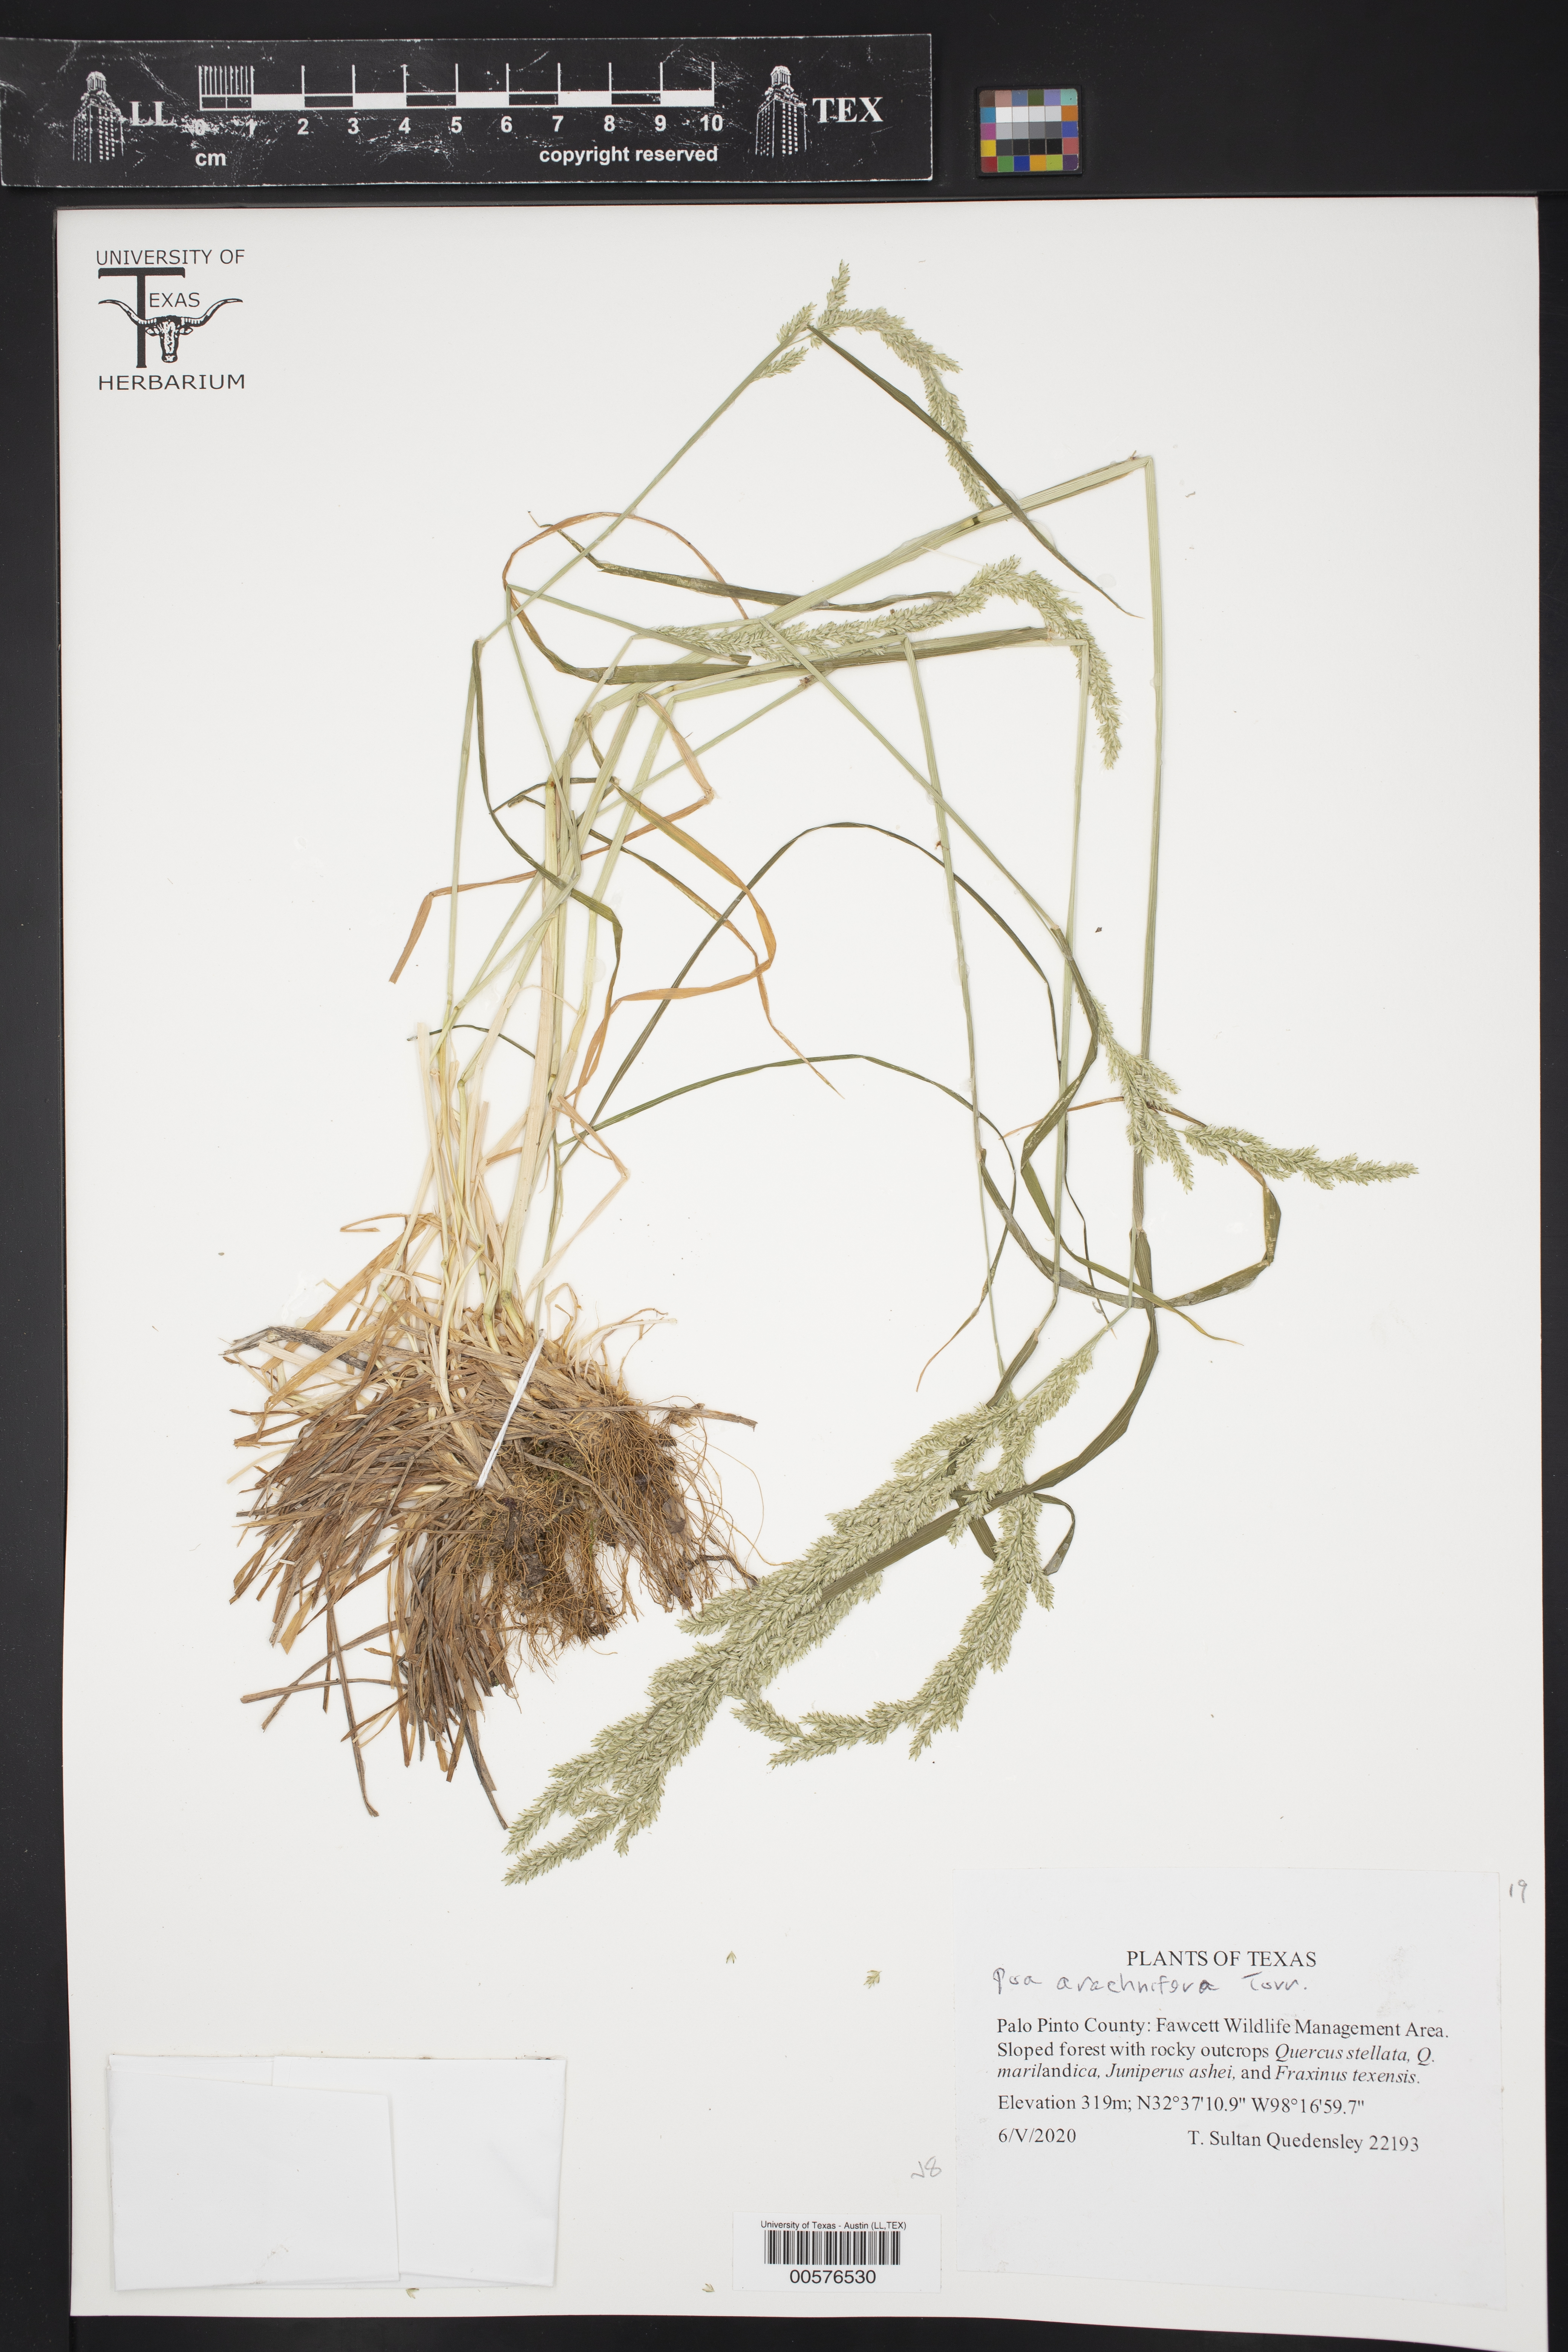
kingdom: Plantae
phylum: Tracheophyta
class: Liliopsida
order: Poales
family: Poaceae
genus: Poa
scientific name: Poa arachnifera
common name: Texas bluegrass
